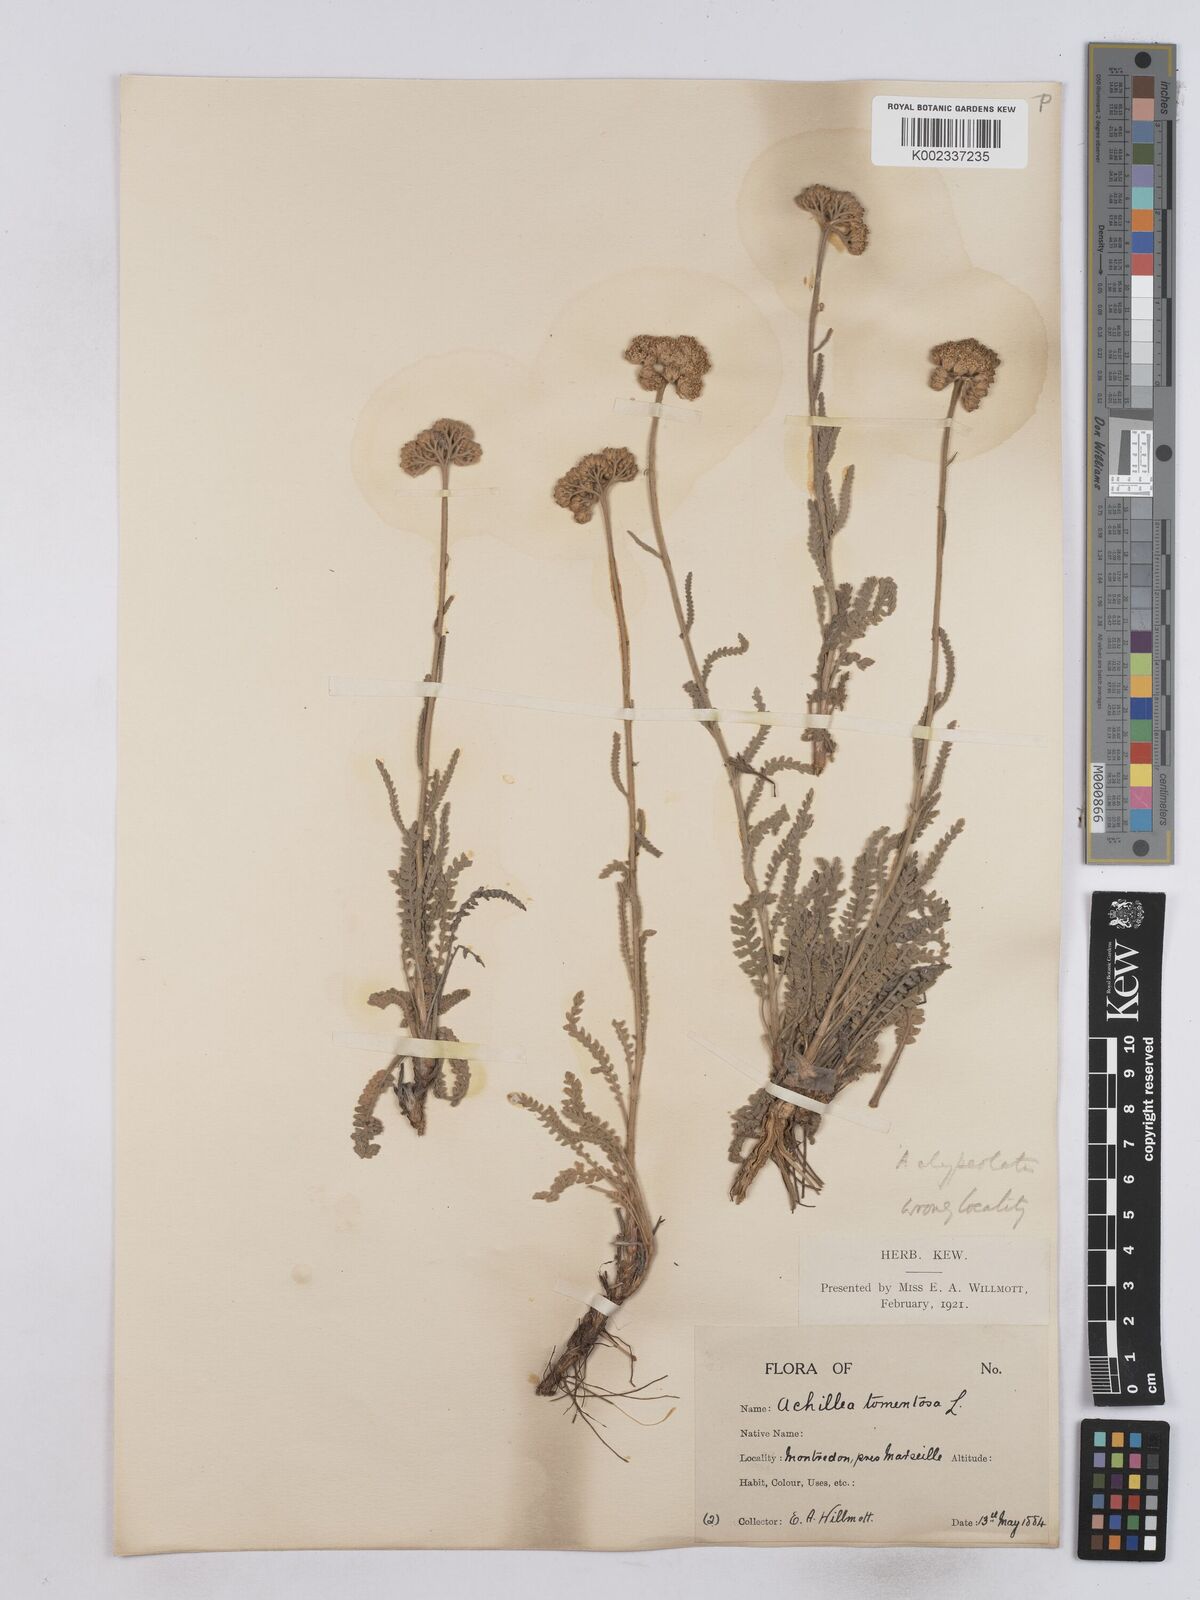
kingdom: Plantae
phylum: Tracheophyta
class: Magnoliopsida
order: Asterales
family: Asteraceae
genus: Achillea
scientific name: Achillea tomentosa
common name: Yellow milfoil
